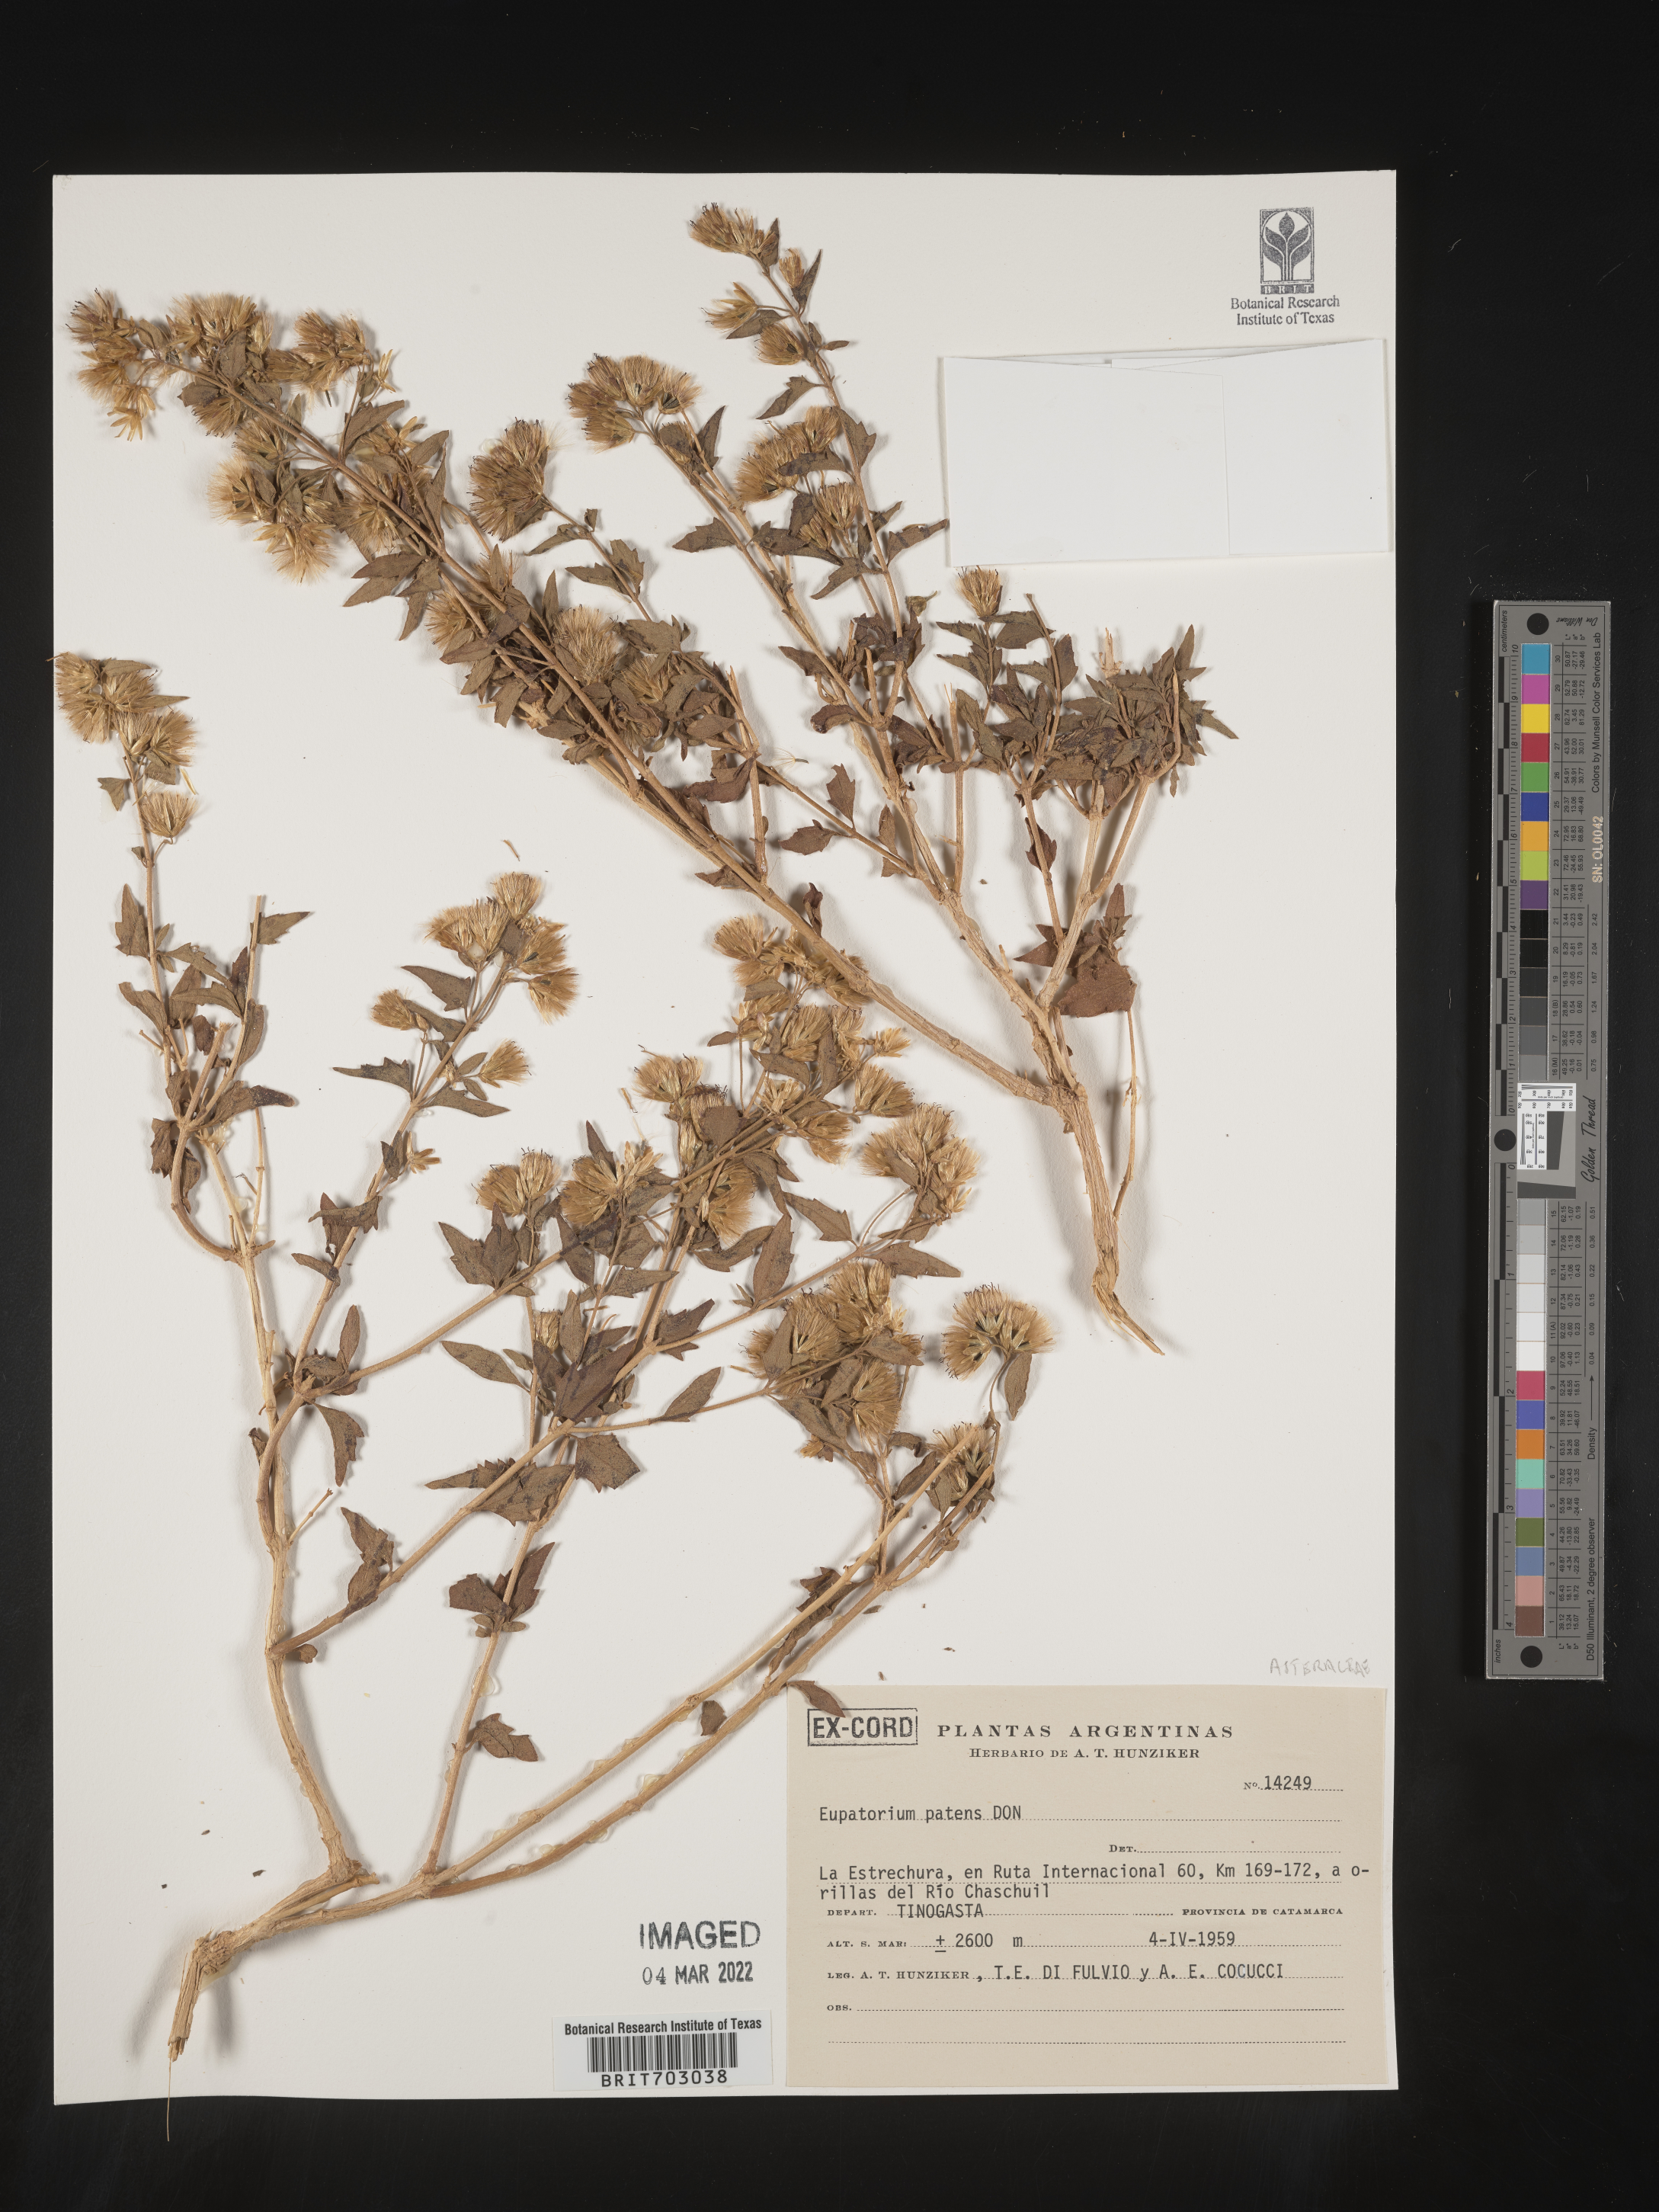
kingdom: Plantae
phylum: Tracheophyta
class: Magnoliopsida
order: Asterales
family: Asteraceae
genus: Eupatorium
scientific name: Eupatorium
